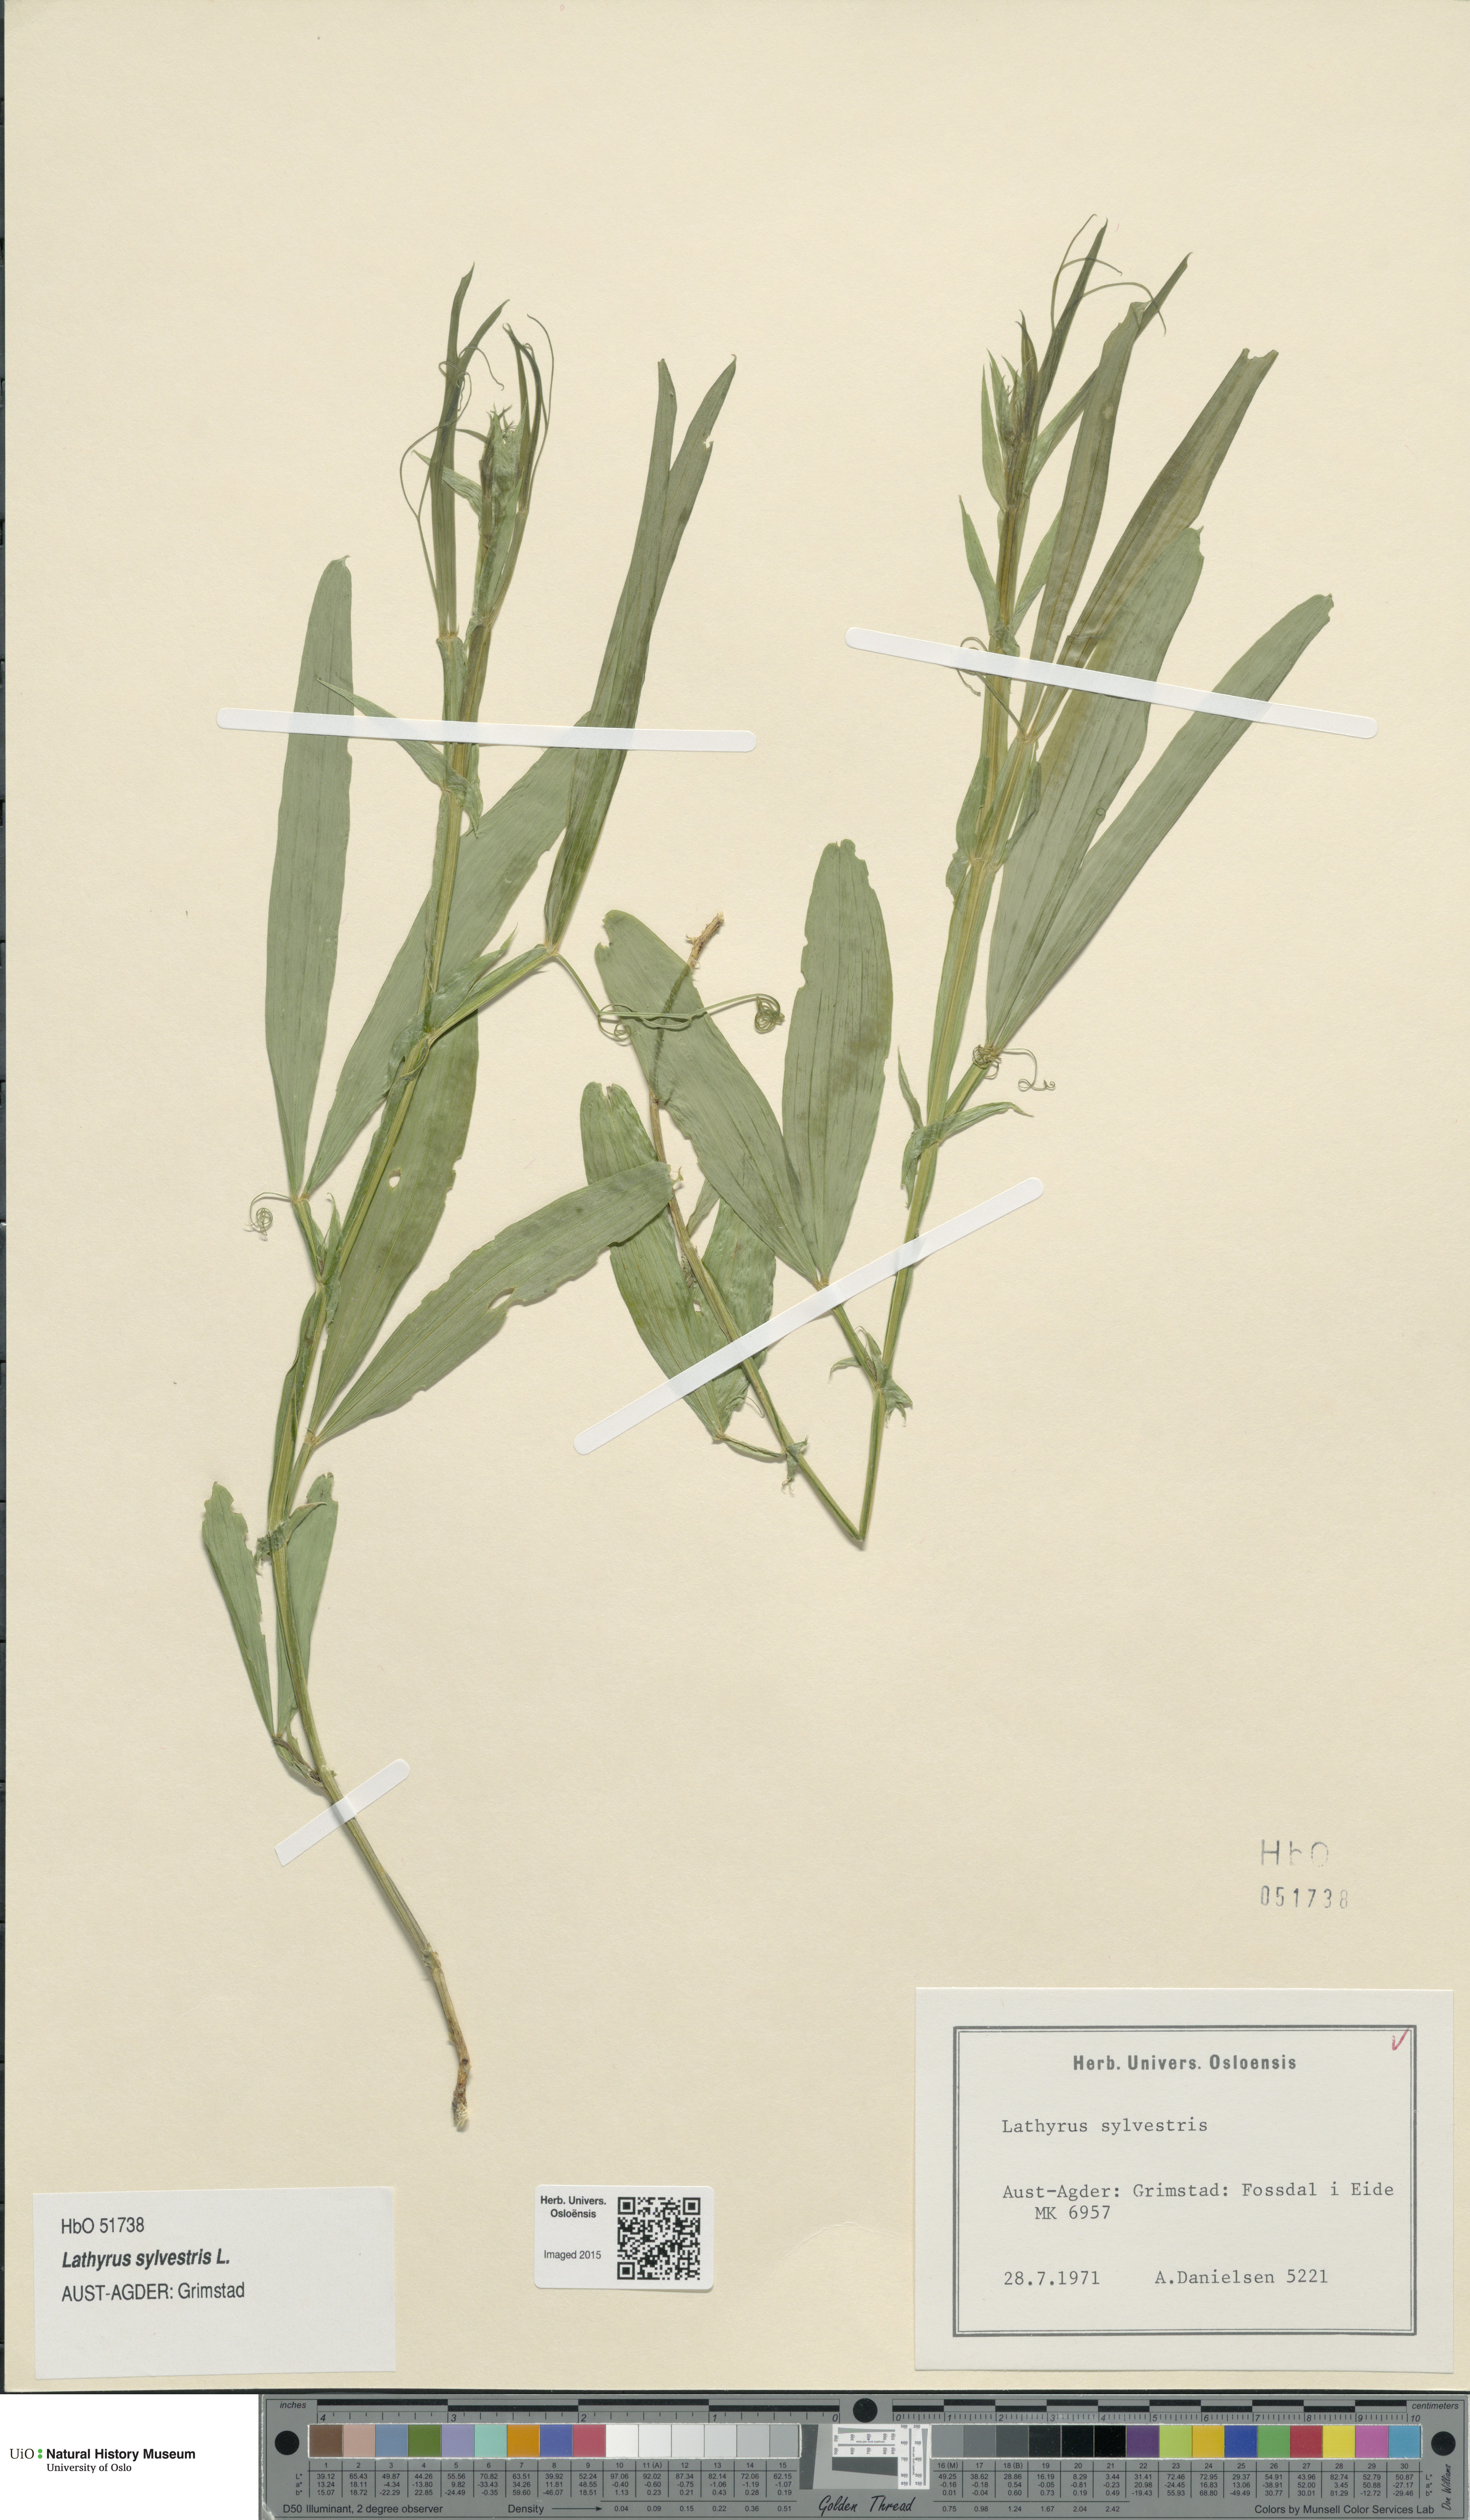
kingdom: Plantae
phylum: Tracheophyta
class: Magnoliopsida
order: Fabales
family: Fabaceae
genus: Lathyrus
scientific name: Lathyrus sylvestris
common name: Flat pea
